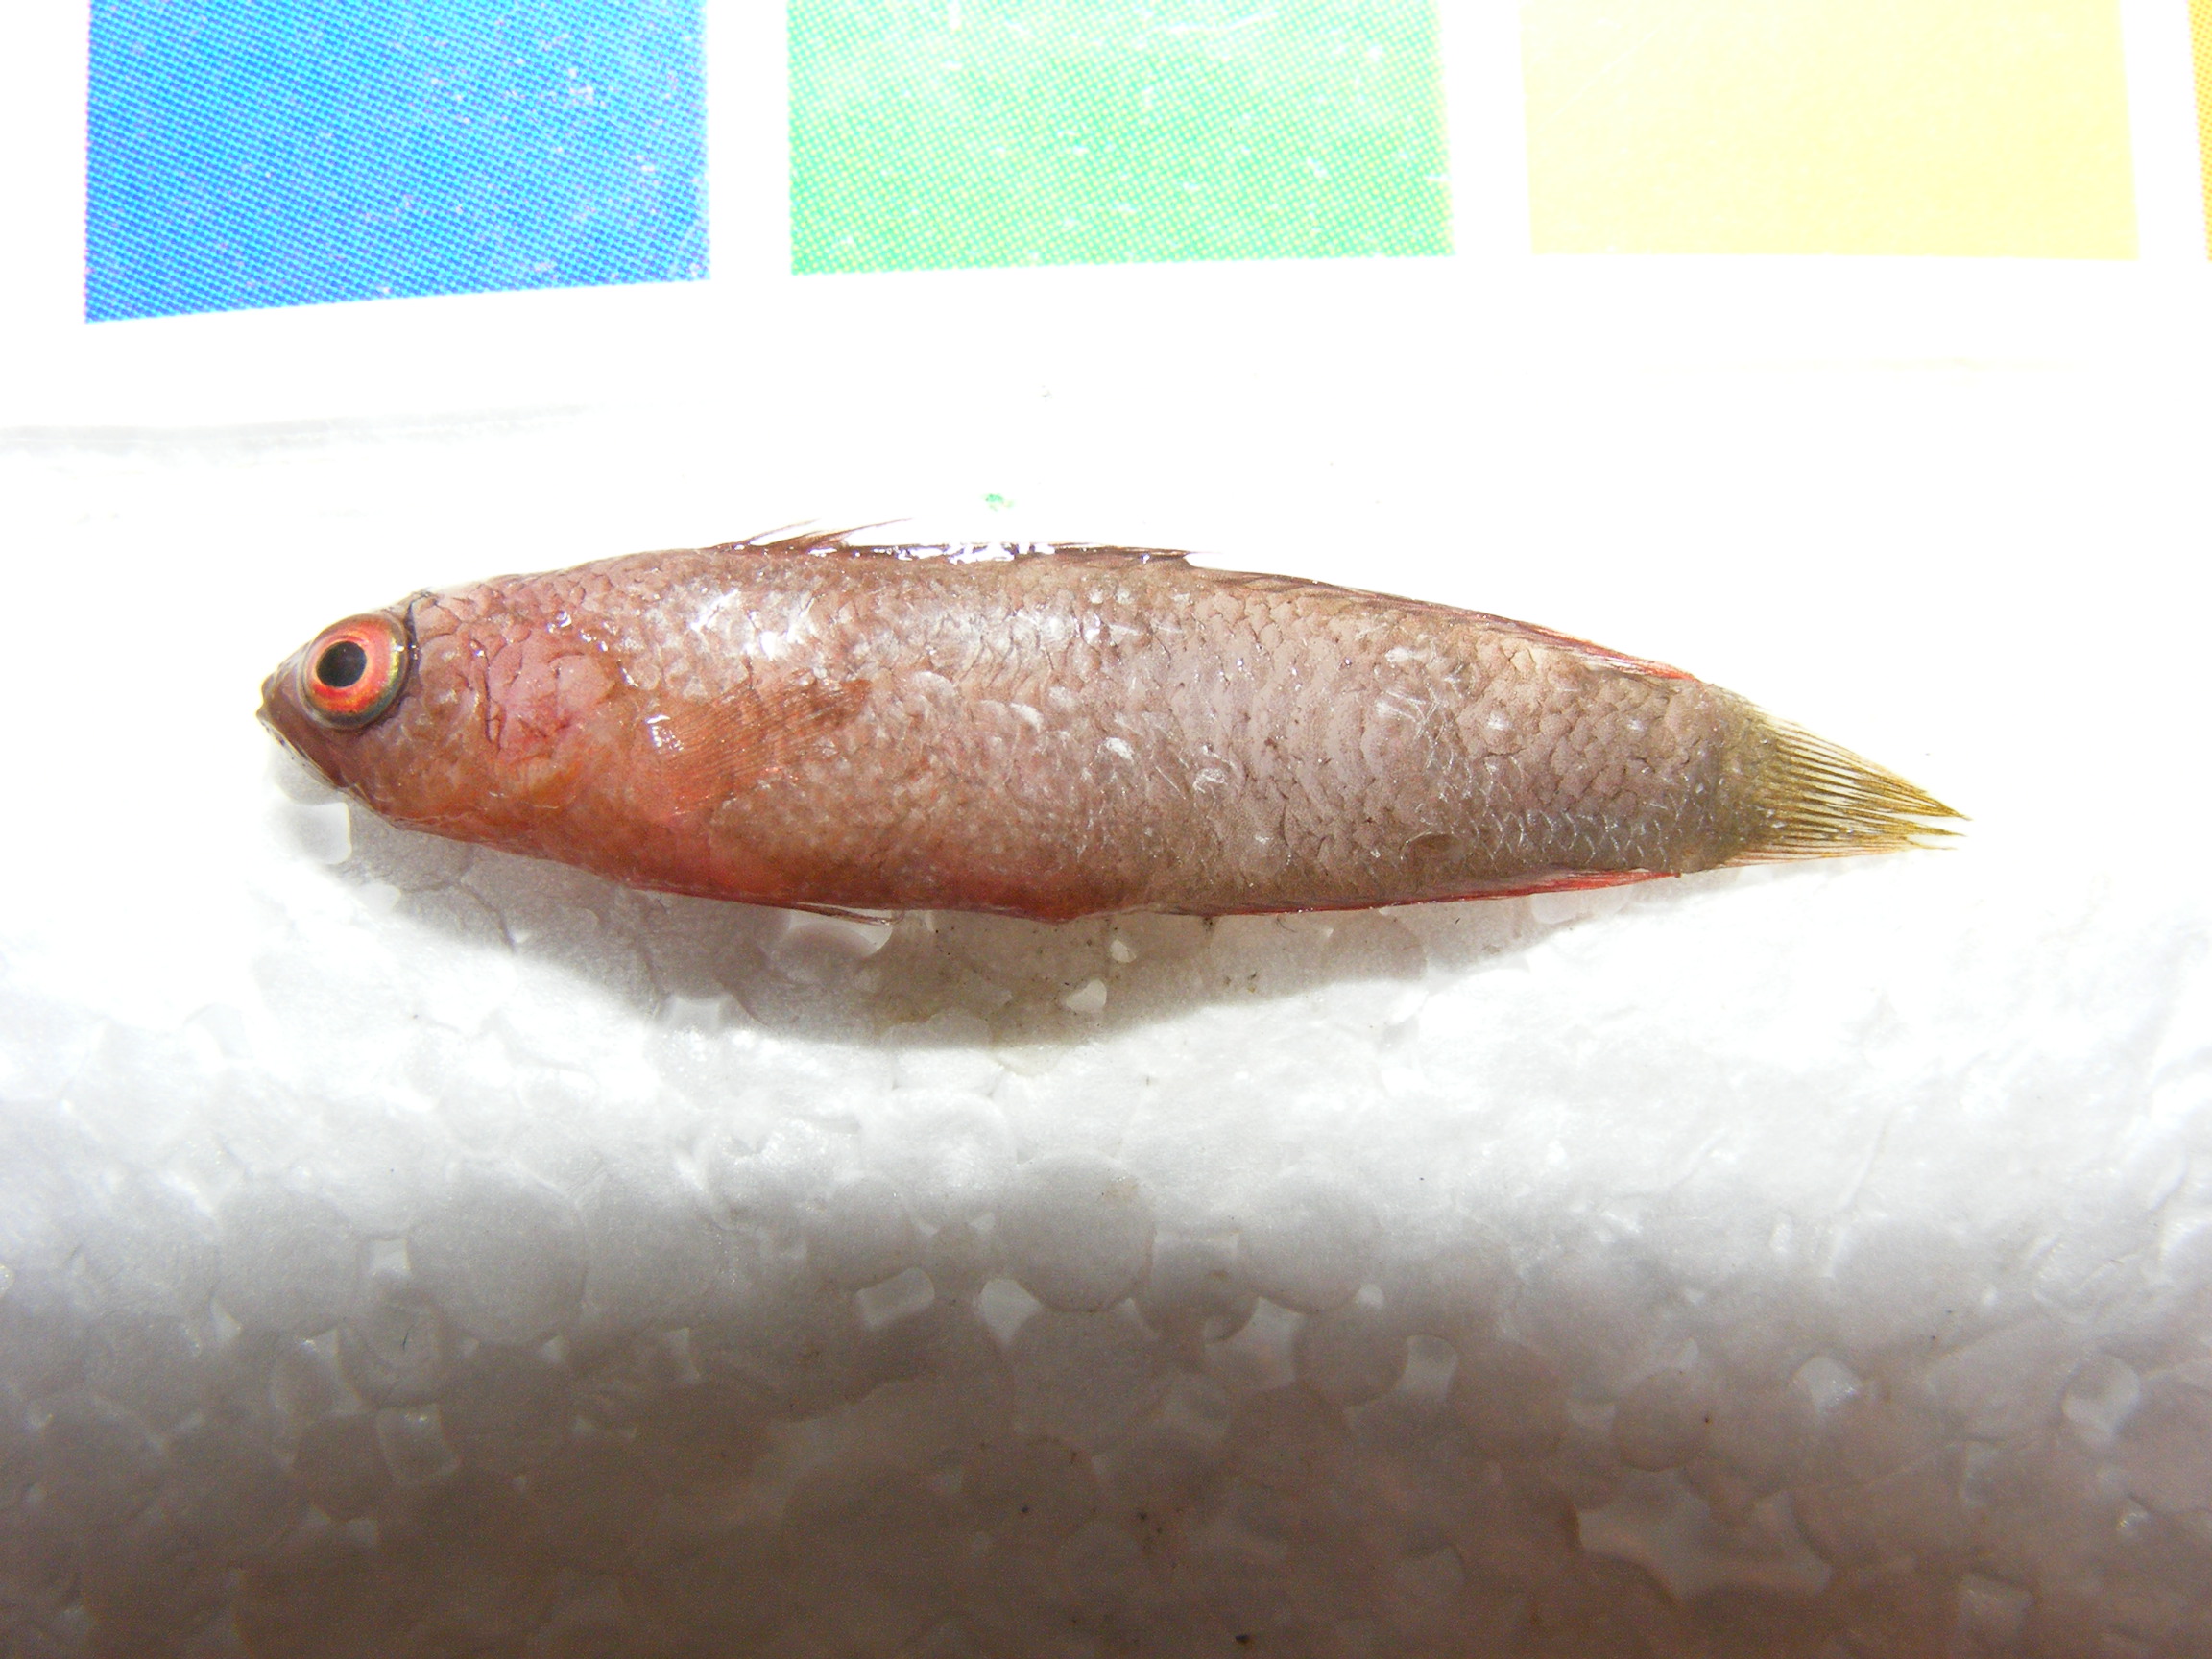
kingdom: Animalia
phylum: Chordata
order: Perciformes
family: Pseudochromidae
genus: Chlidichthys
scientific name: Chlidichthys
